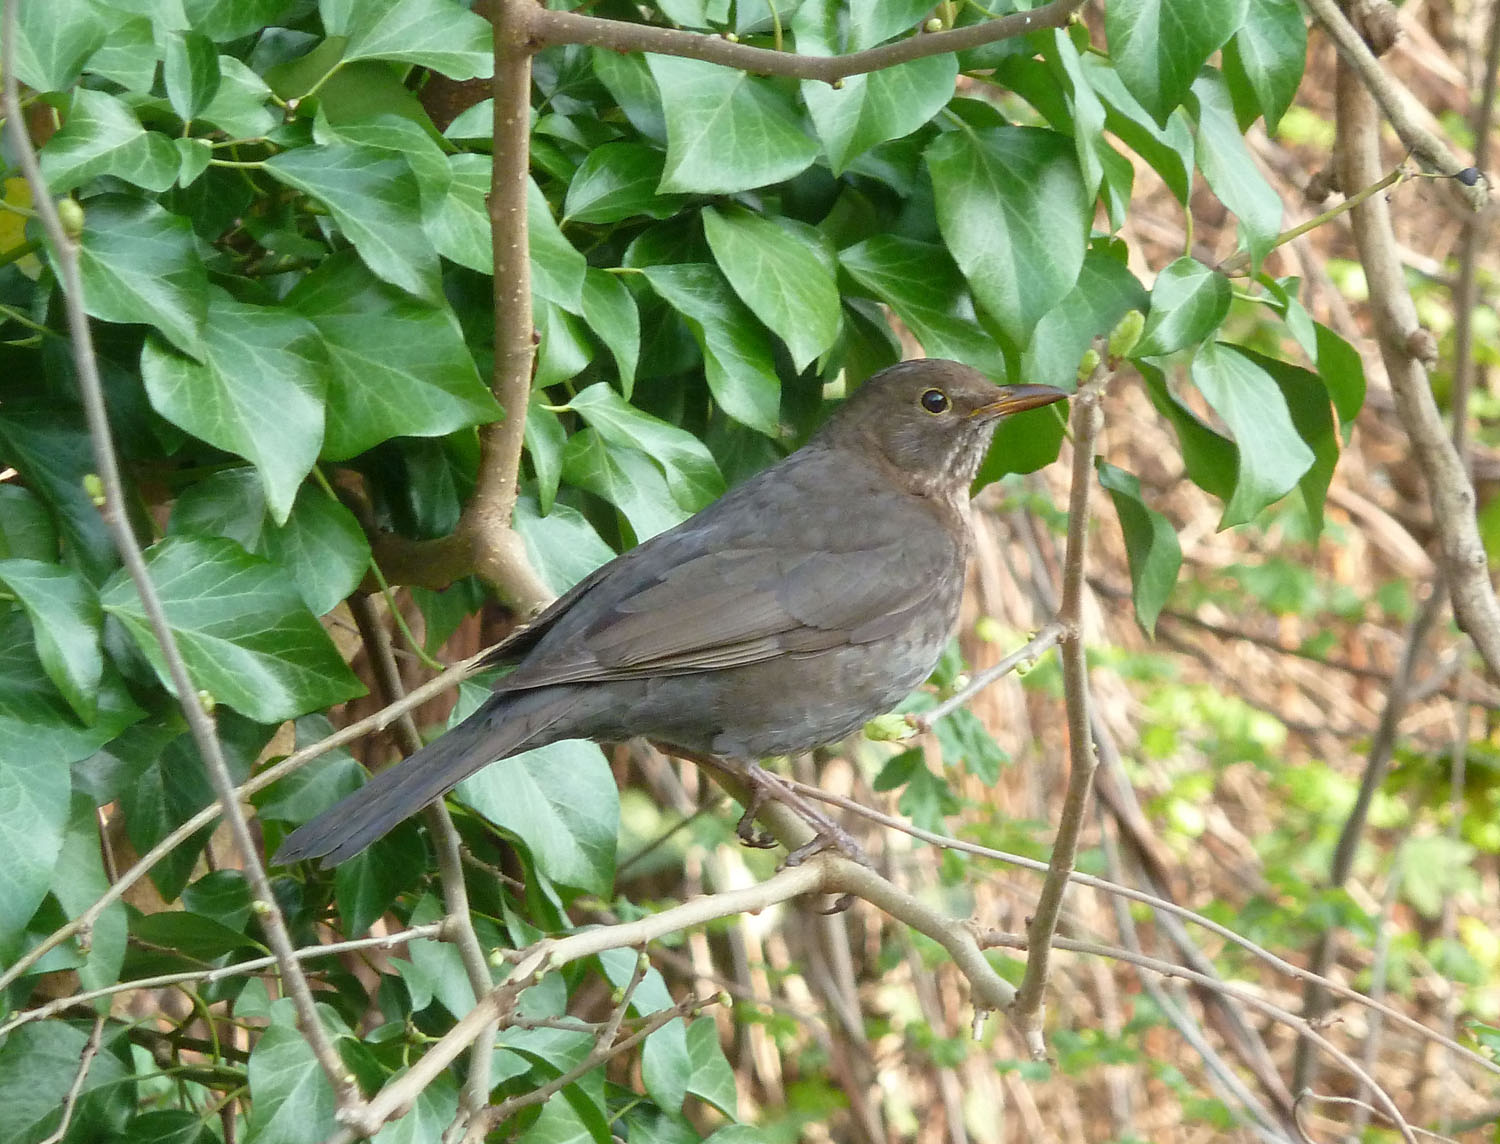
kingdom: Animalia
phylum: Chordata
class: Aves
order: Passeriformes
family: Turdidae
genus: Turdus
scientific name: Turdus merula
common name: Common blackbird
